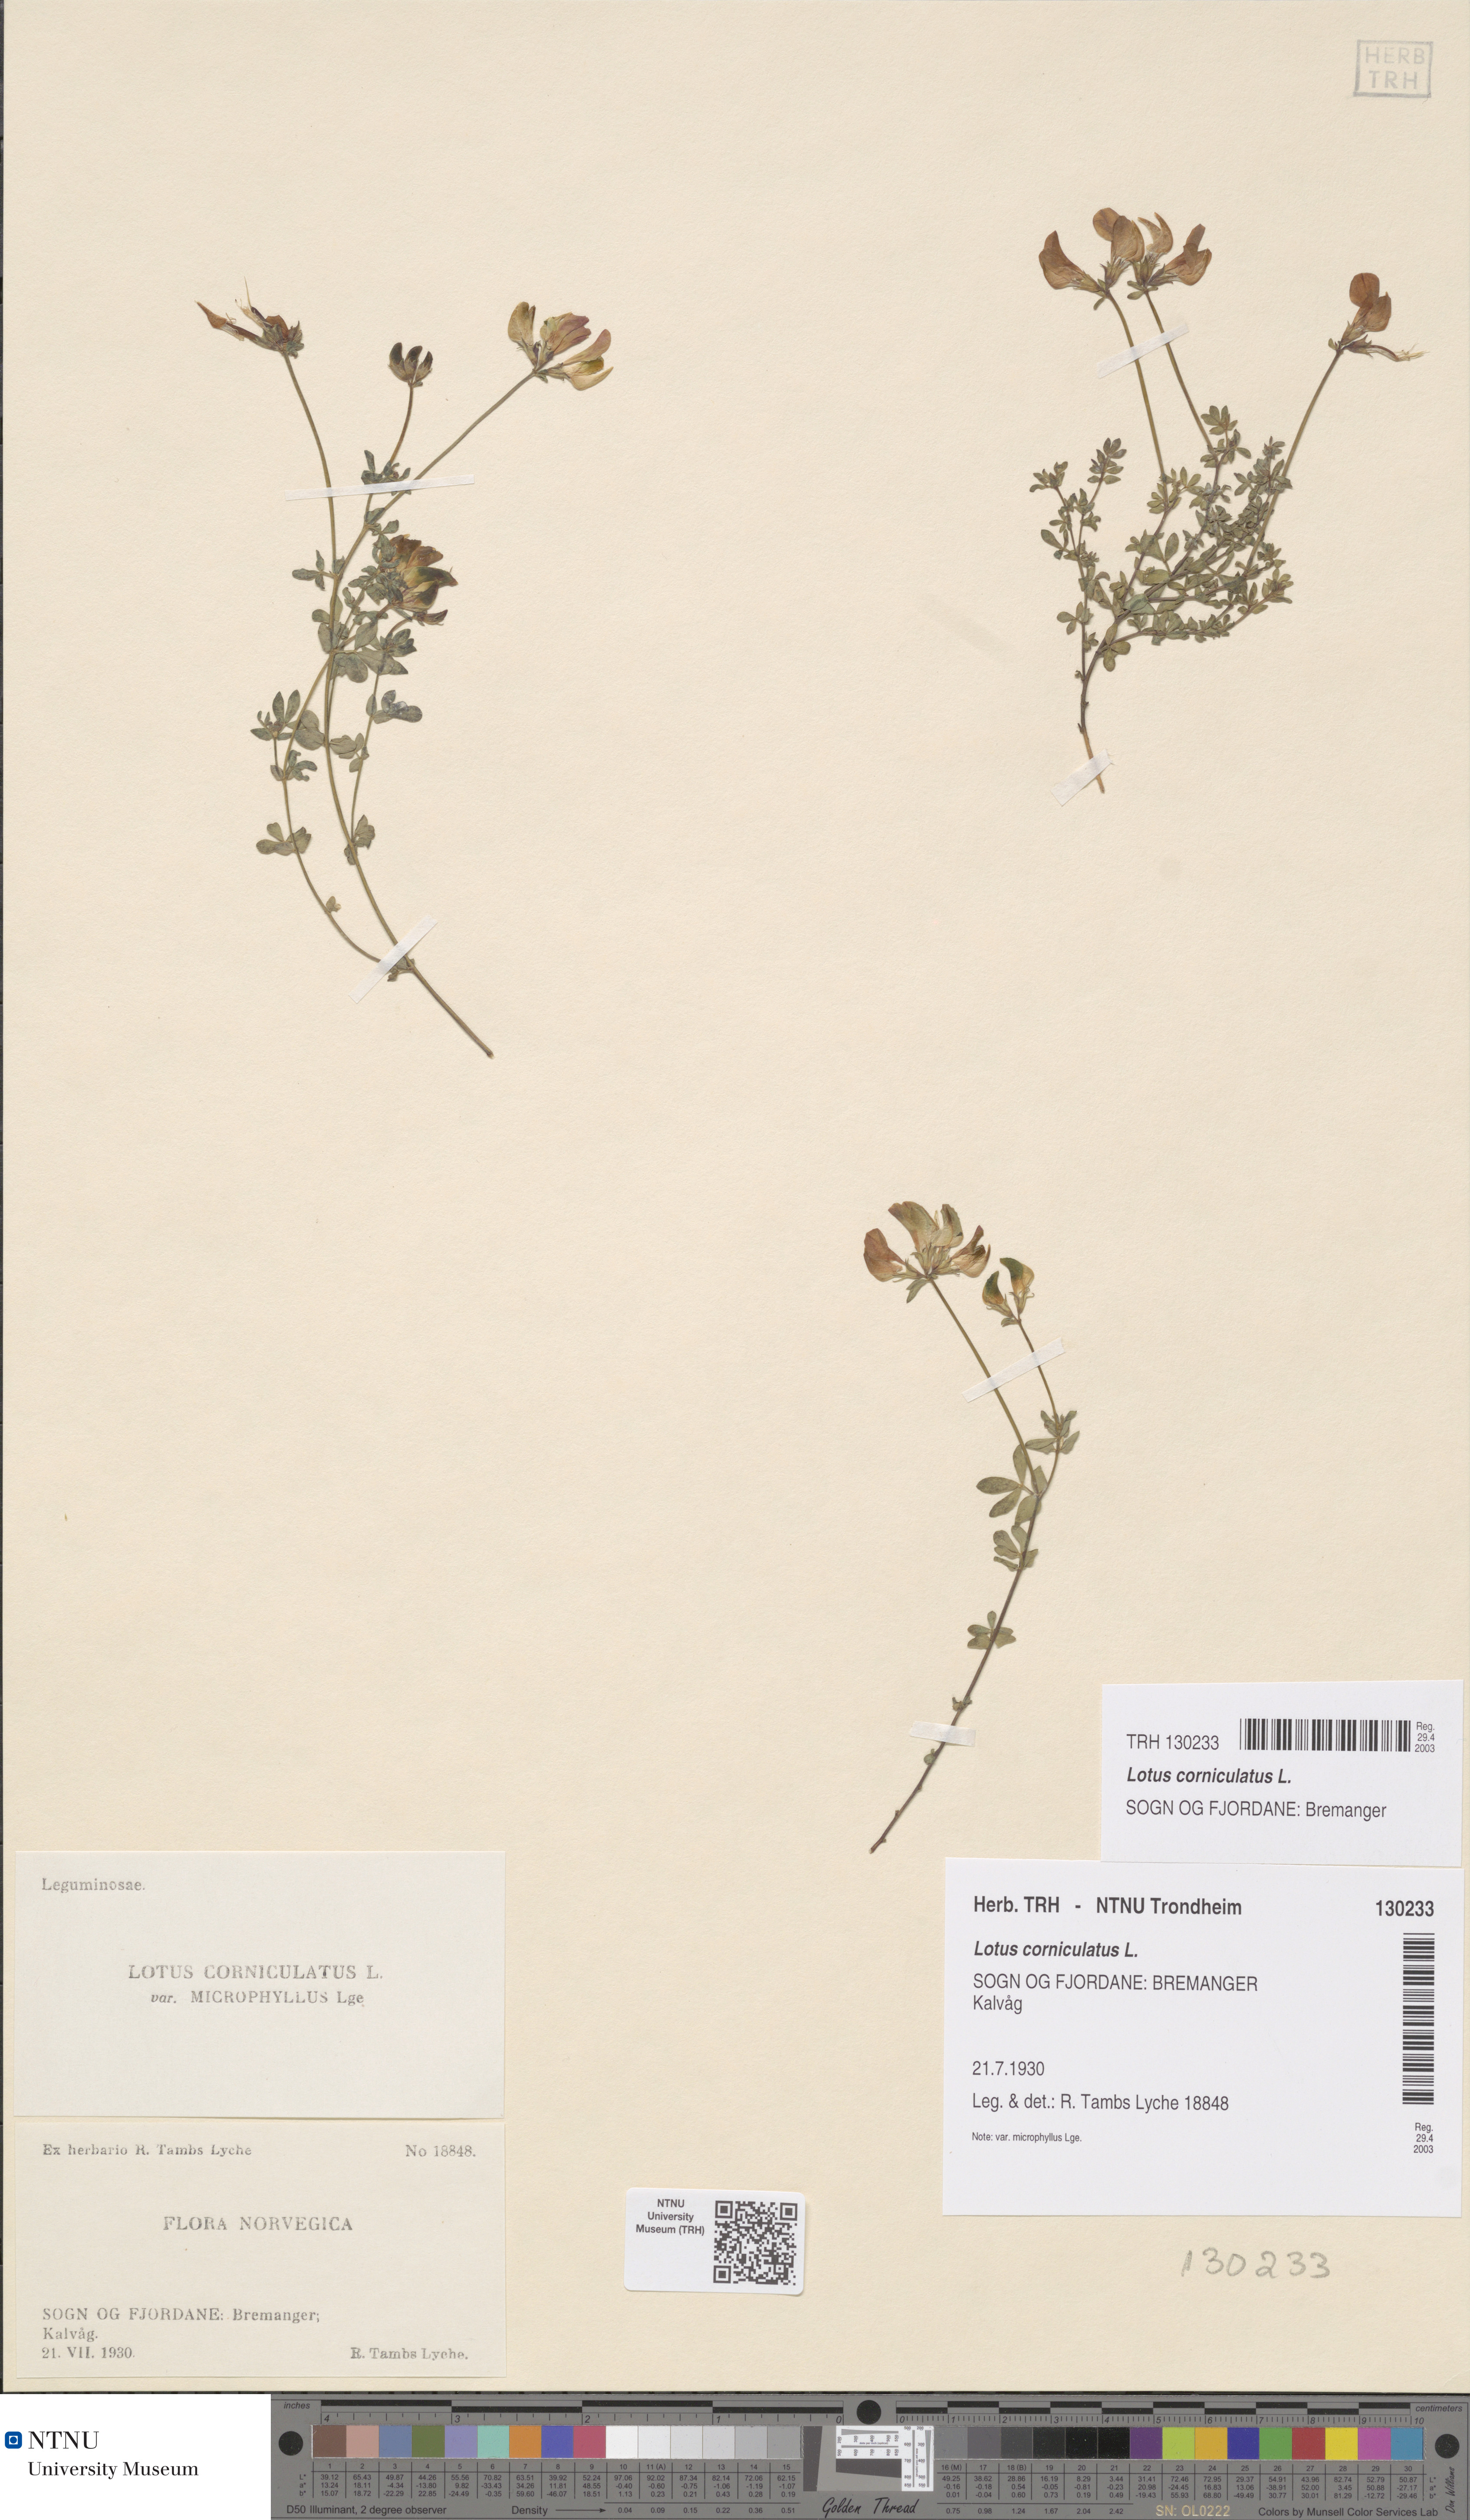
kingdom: Plantae
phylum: Tracheophyta
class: Magnoliopsida
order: Fabales
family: Fabaceae
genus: Lotus
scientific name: Lotus corniculatus
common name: Common bird's-foot-trefoil
